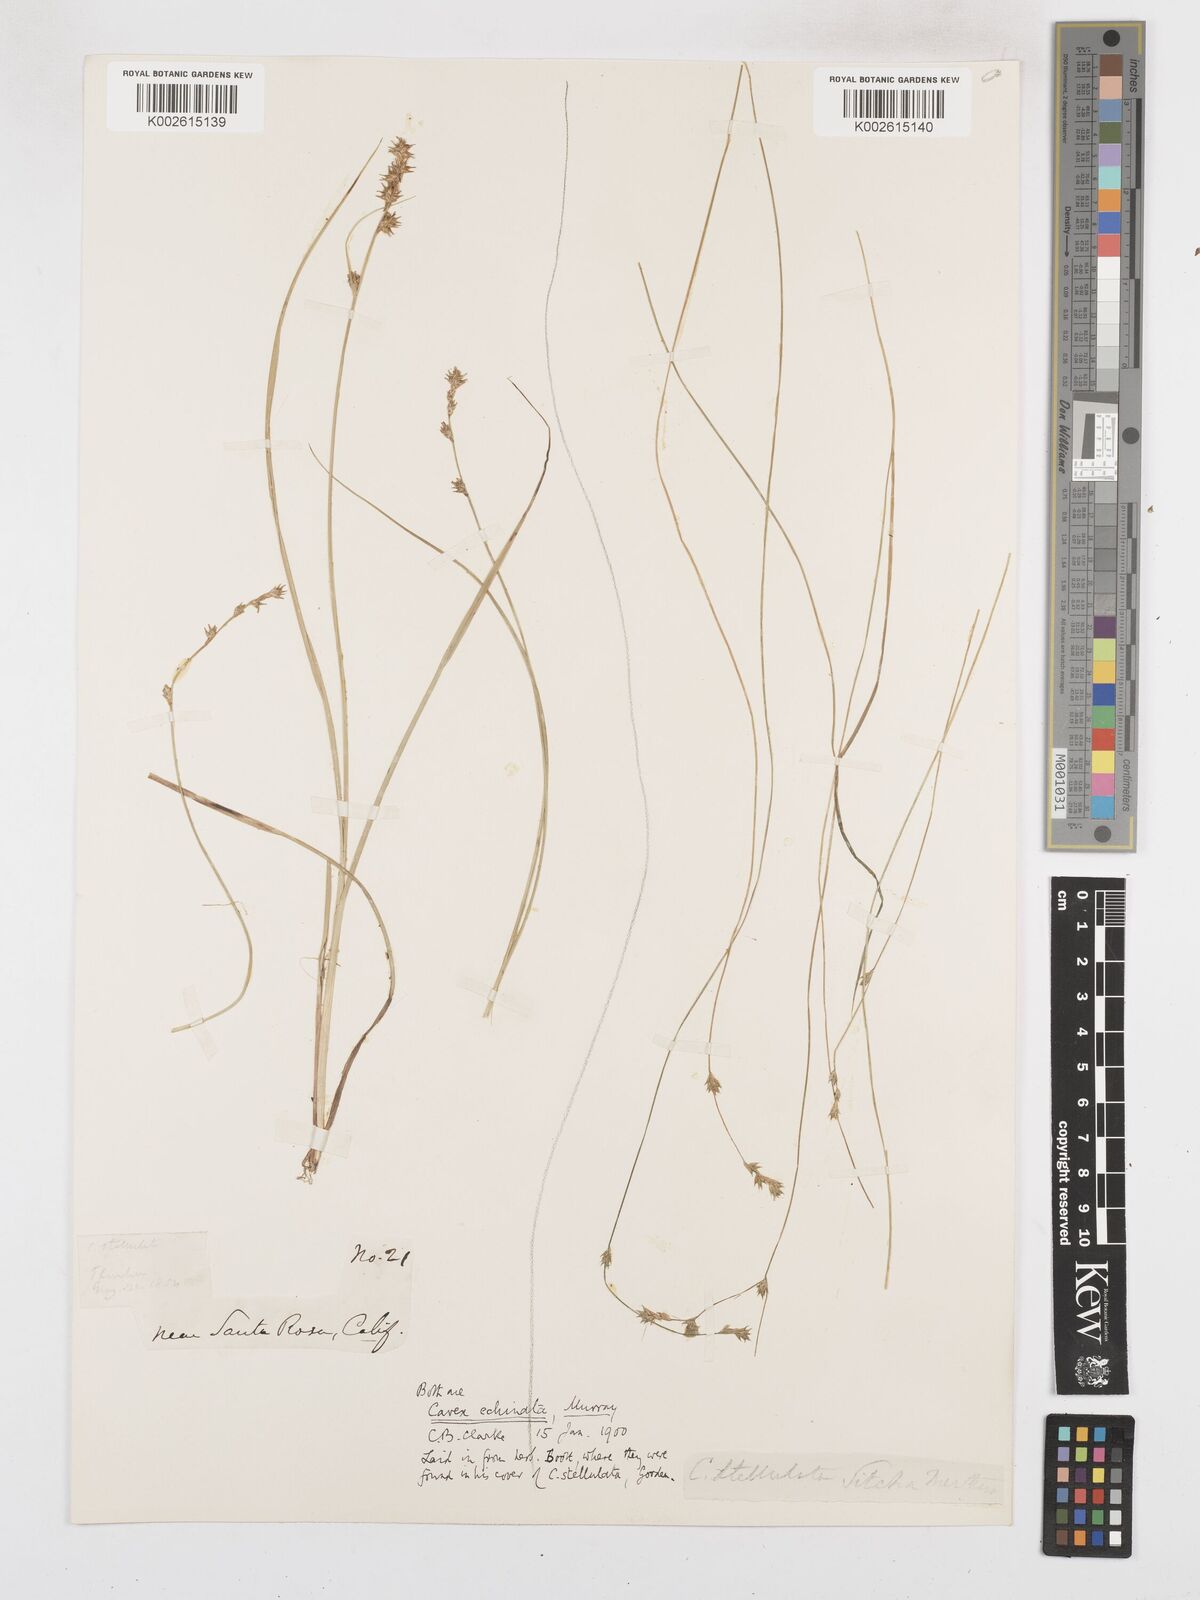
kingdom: Plantae
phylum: Tracheophyta
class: Liliopsida
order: Poales
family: Cyperaceae
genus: Carex
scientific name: Carex echinata
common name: Star sedge
